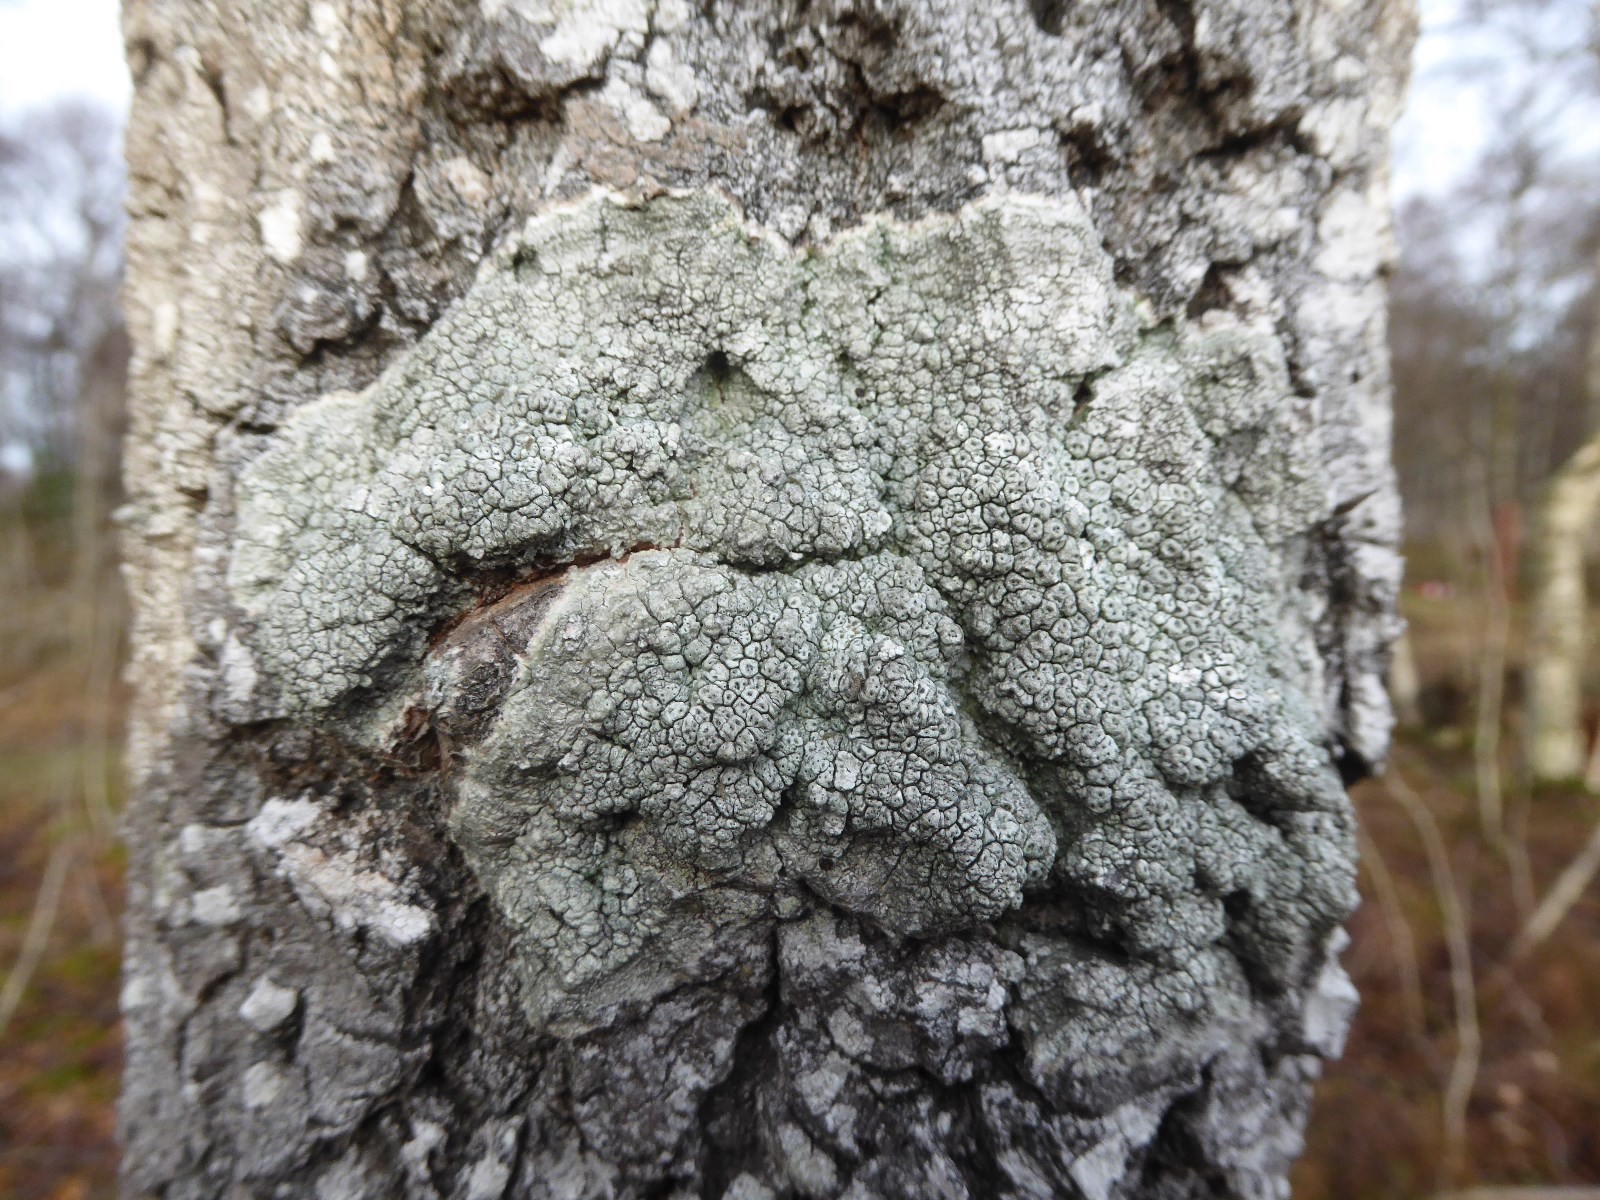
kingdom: Fungi
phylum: Ascomycota
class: Lecanoromycetes
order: Pertusariales
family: Pertusariaceae
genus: Pertusaria
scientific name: Pertusaria hymenea
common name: åben prikvortelav
